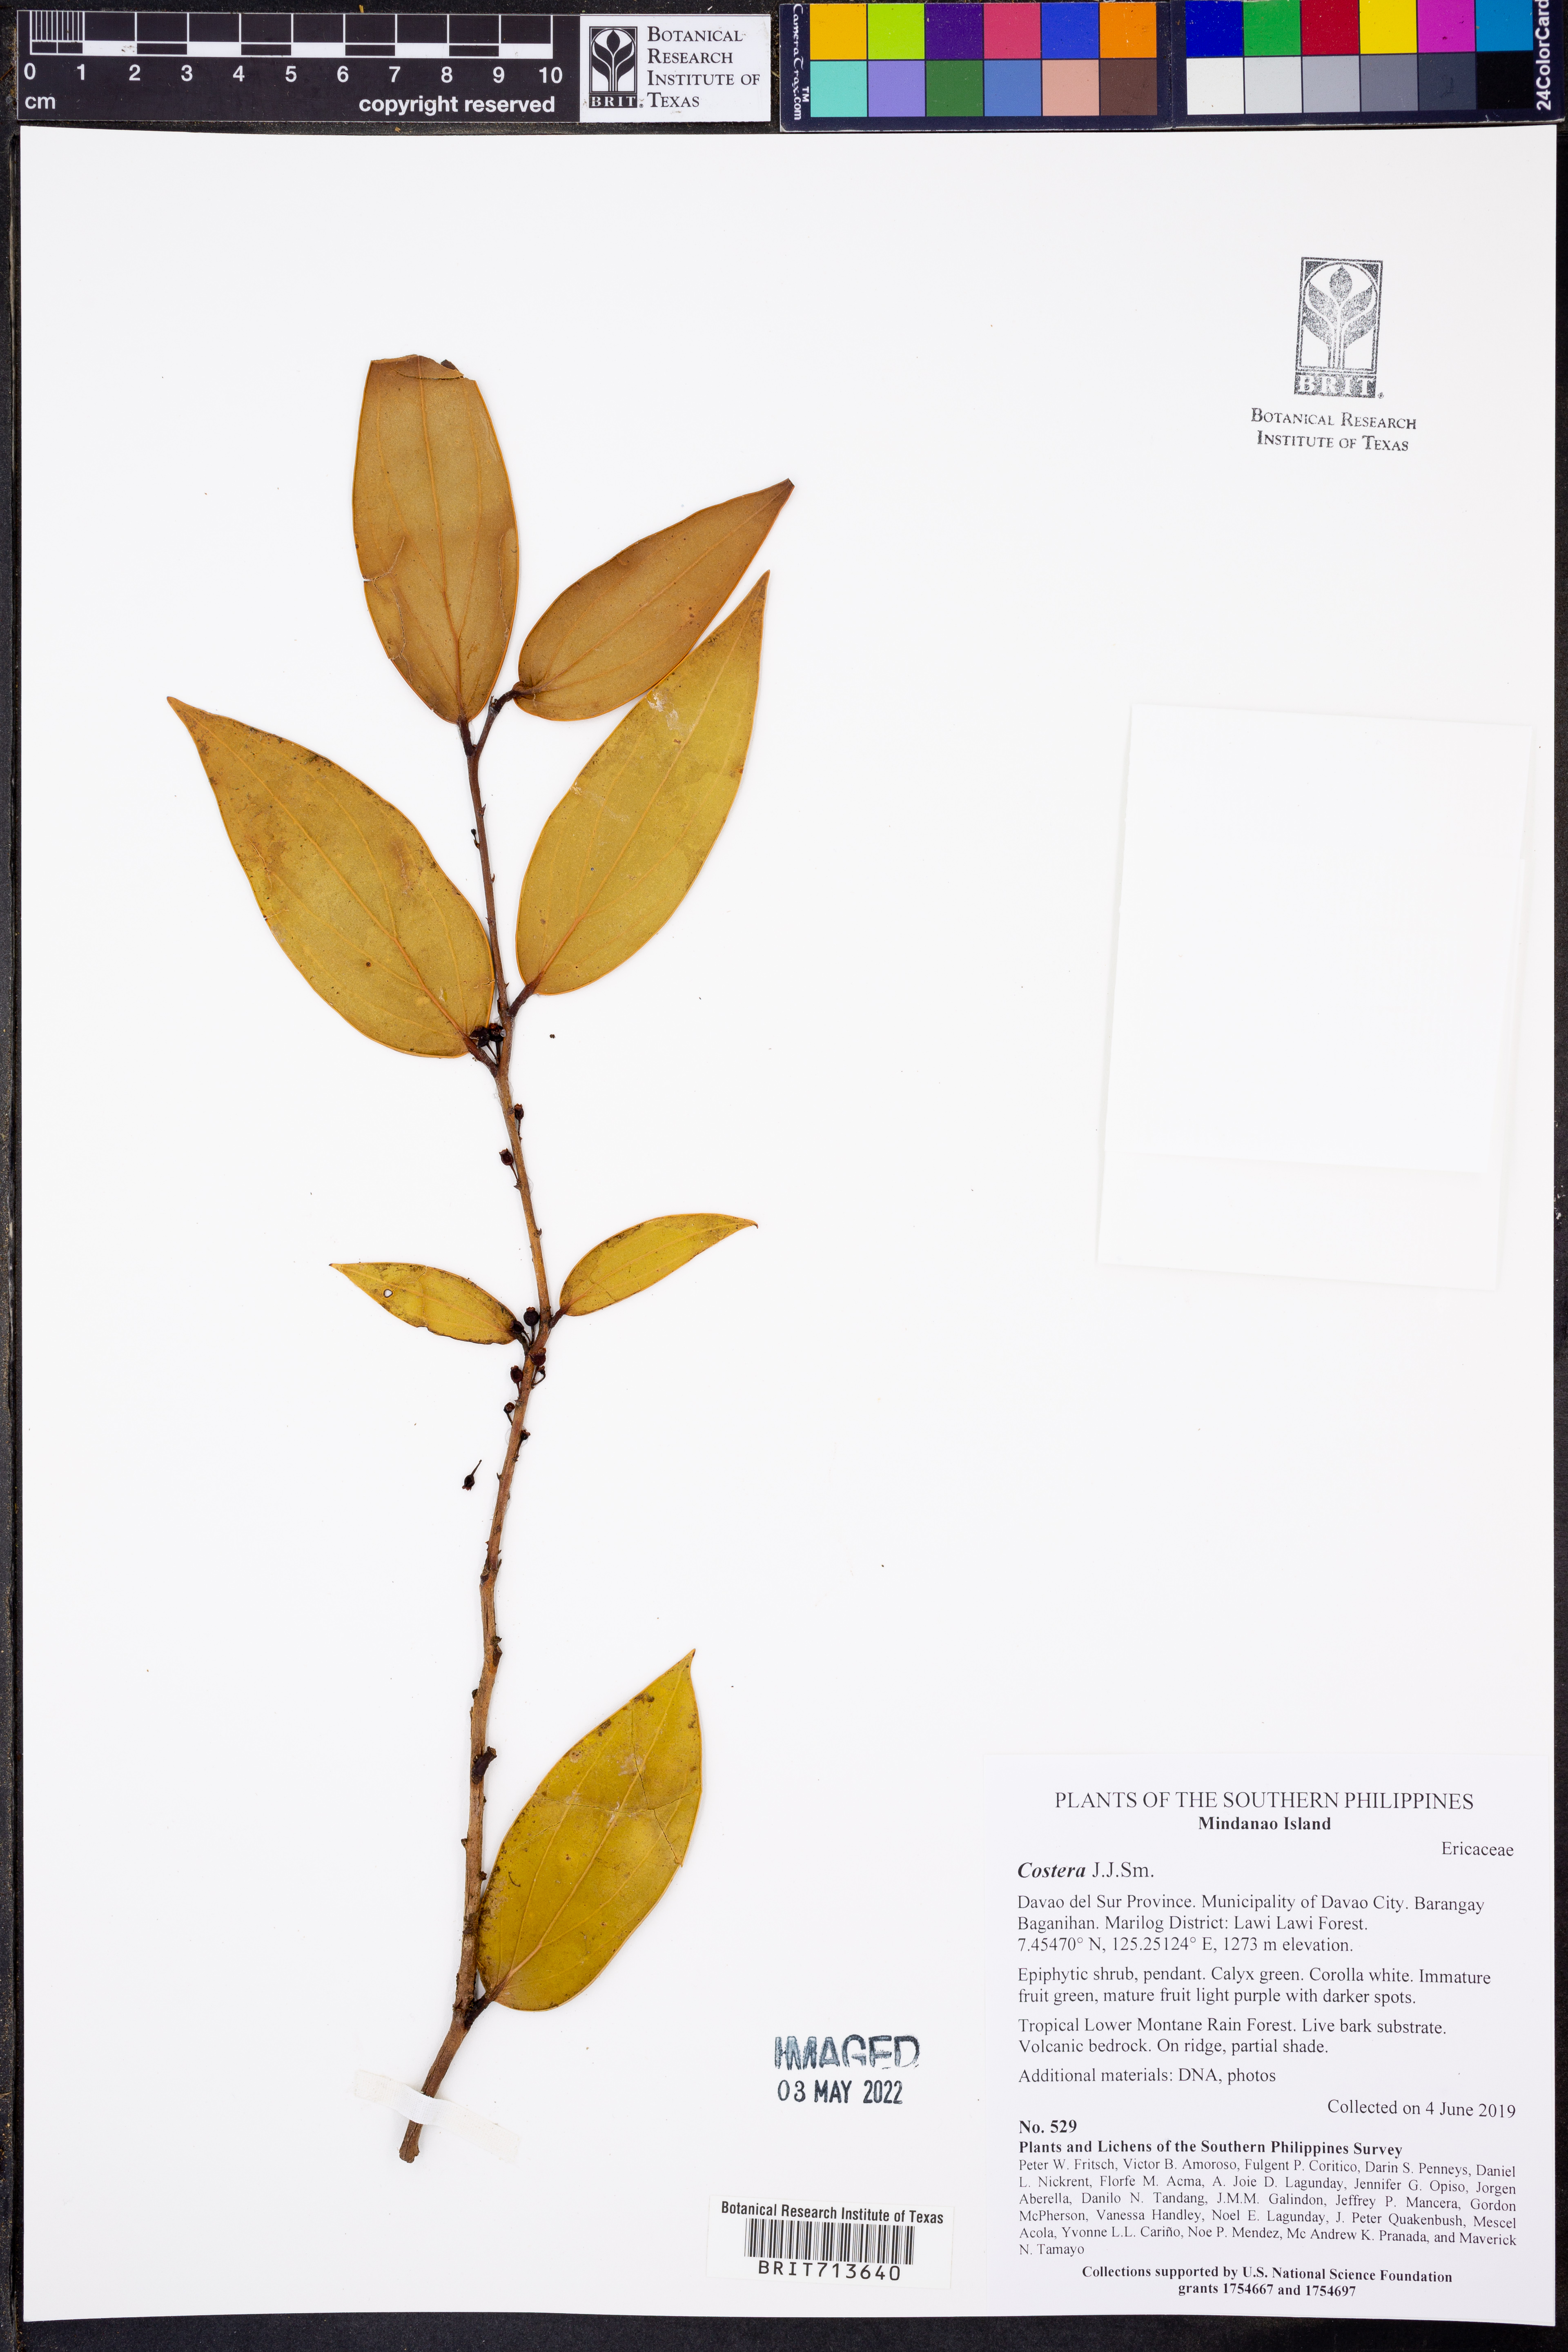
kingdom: Plantae
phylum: Tracheophyta
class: Magnoliopsida
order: Ericales
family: Ericaceae
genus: Costera
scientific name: Costera
